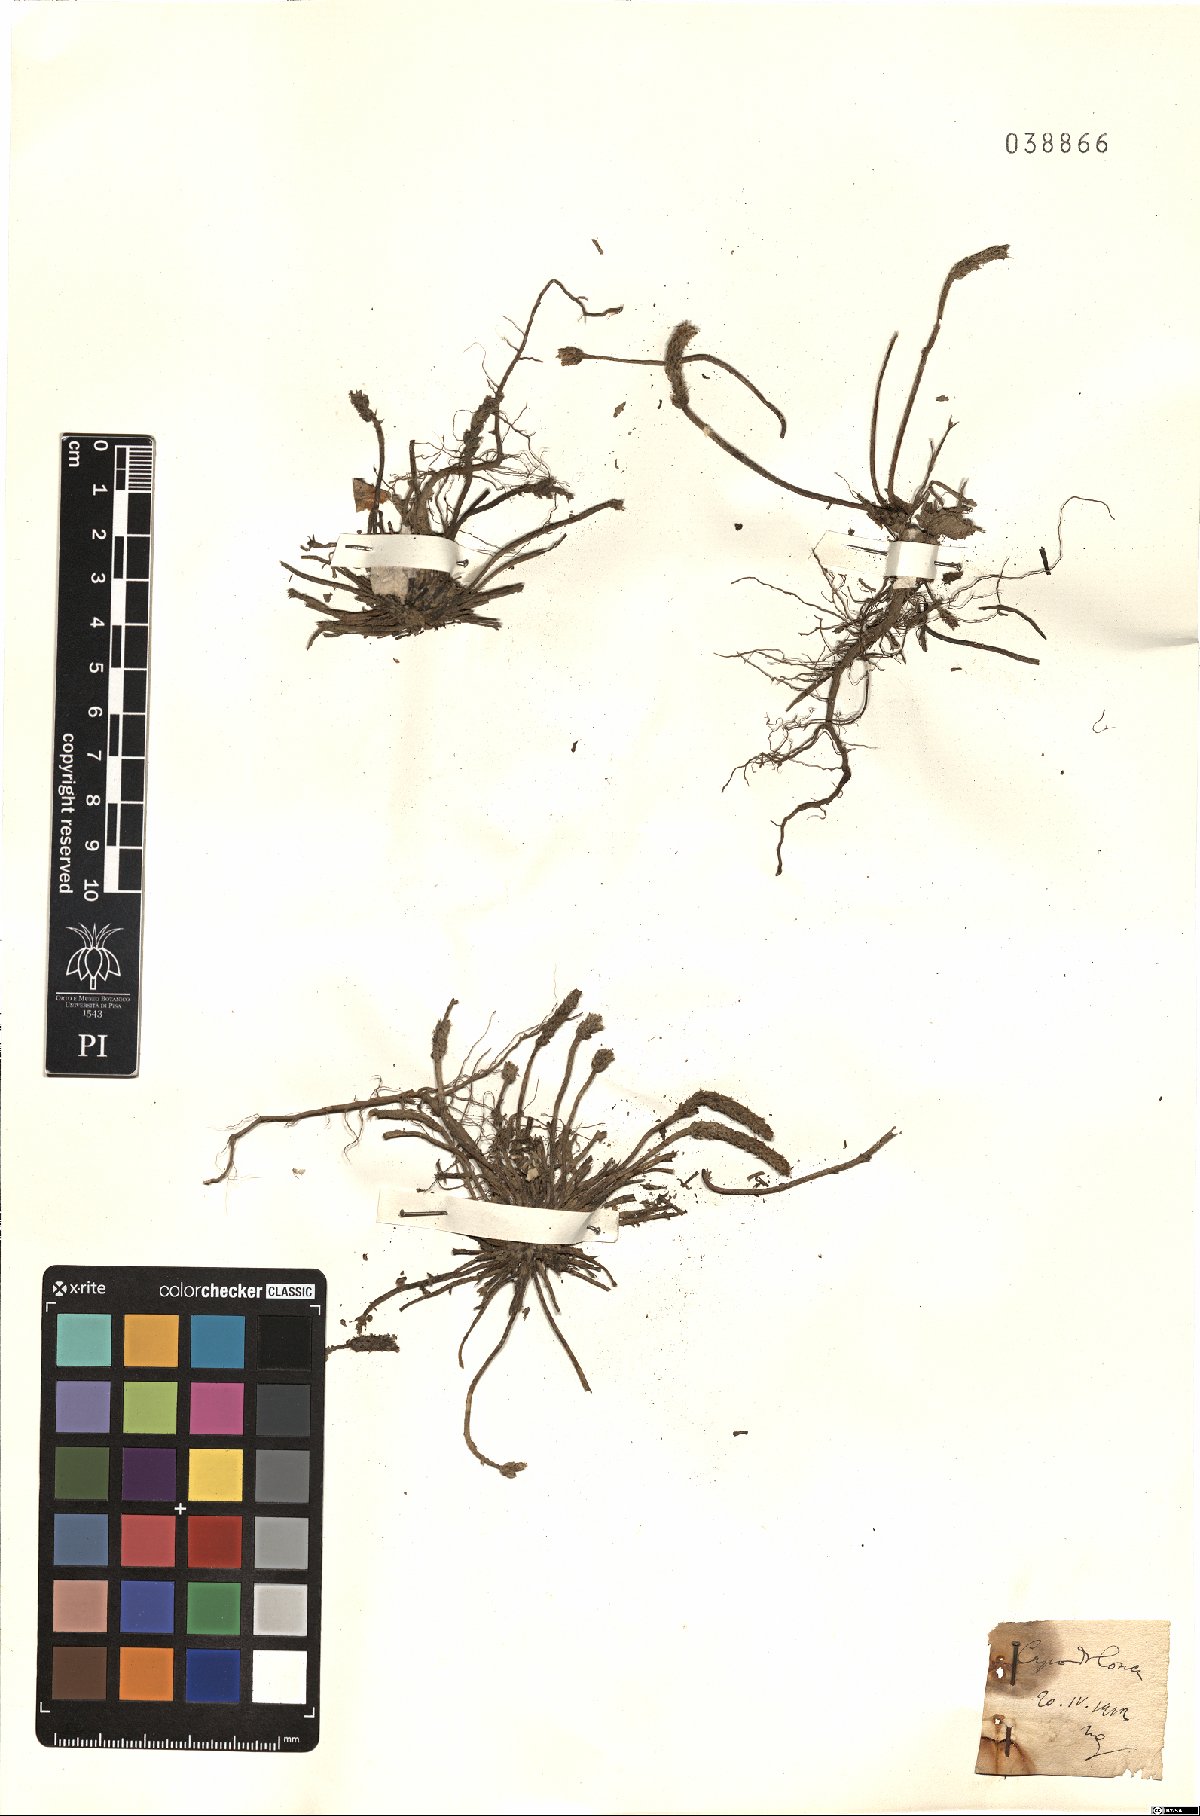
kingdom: Plantae
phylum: Tracheophyta
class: Magnoliopsida
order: Lamiales
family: Plantaginaceae
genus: Plantago
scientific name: Plantago
